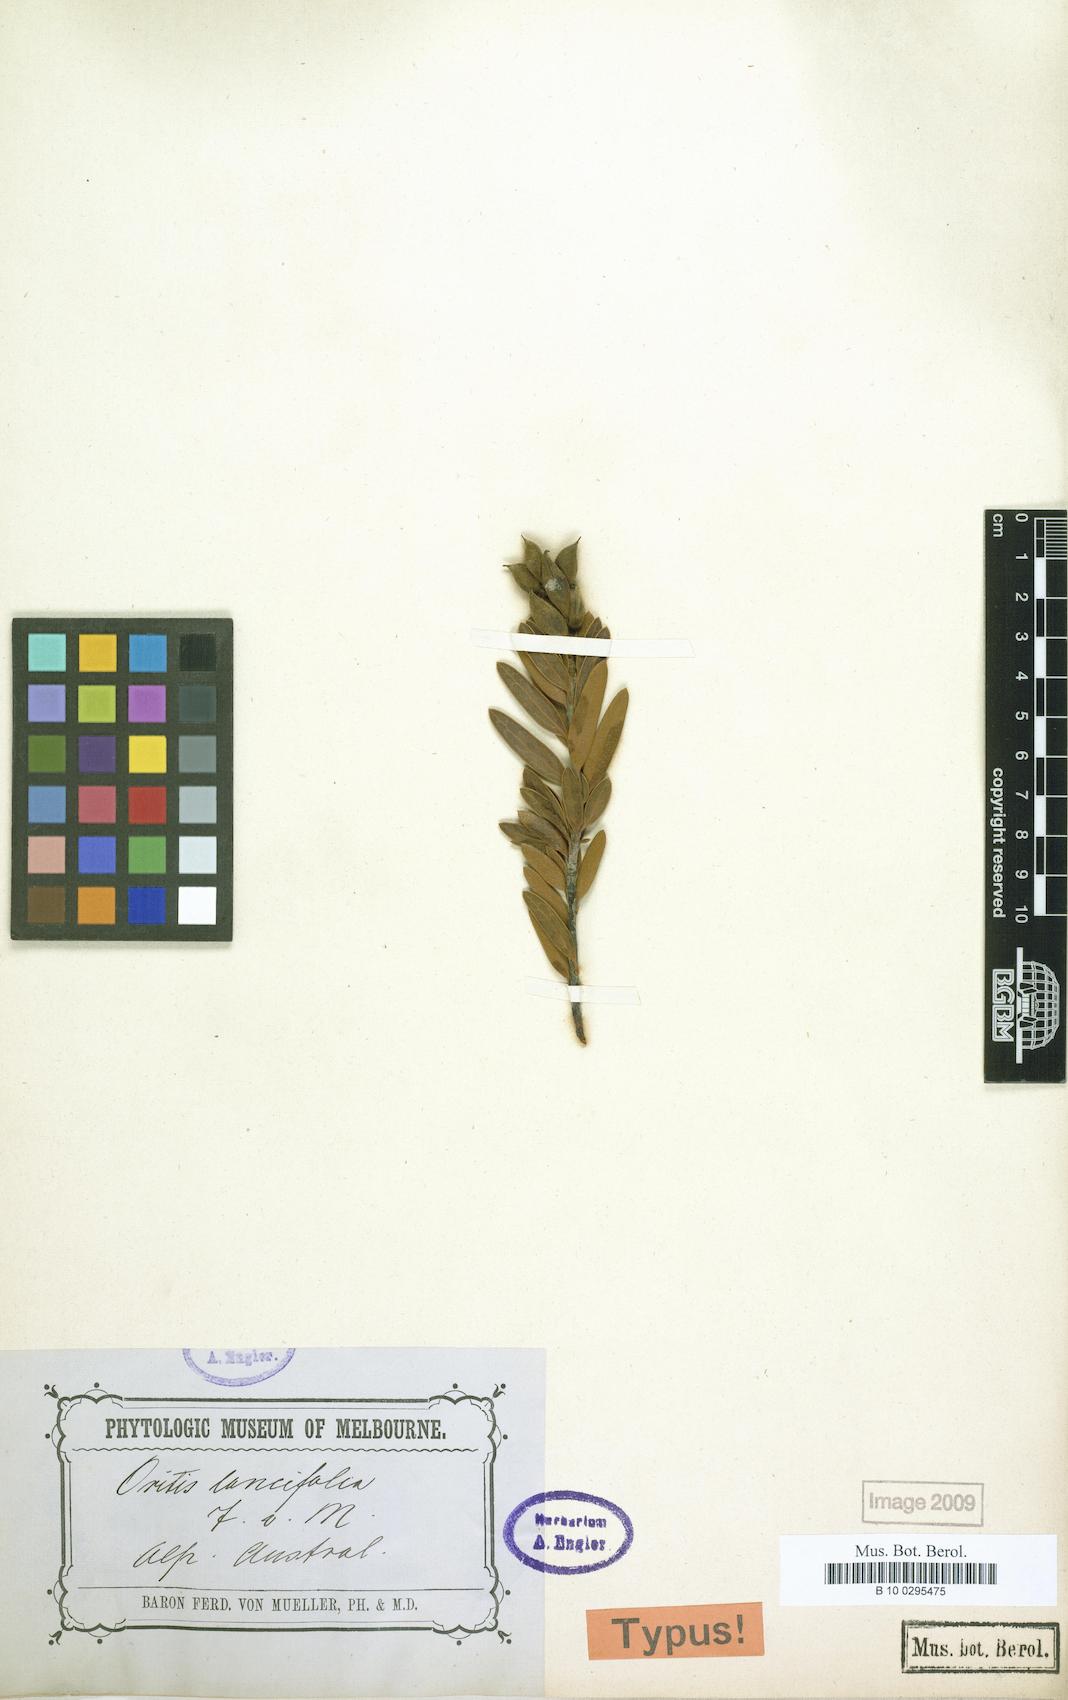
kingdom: Plantae
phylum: Tracheophyta
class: Magnoliopsida
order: Proteales
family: Proteaceae
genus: Orites
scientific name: Orites lancifolius
